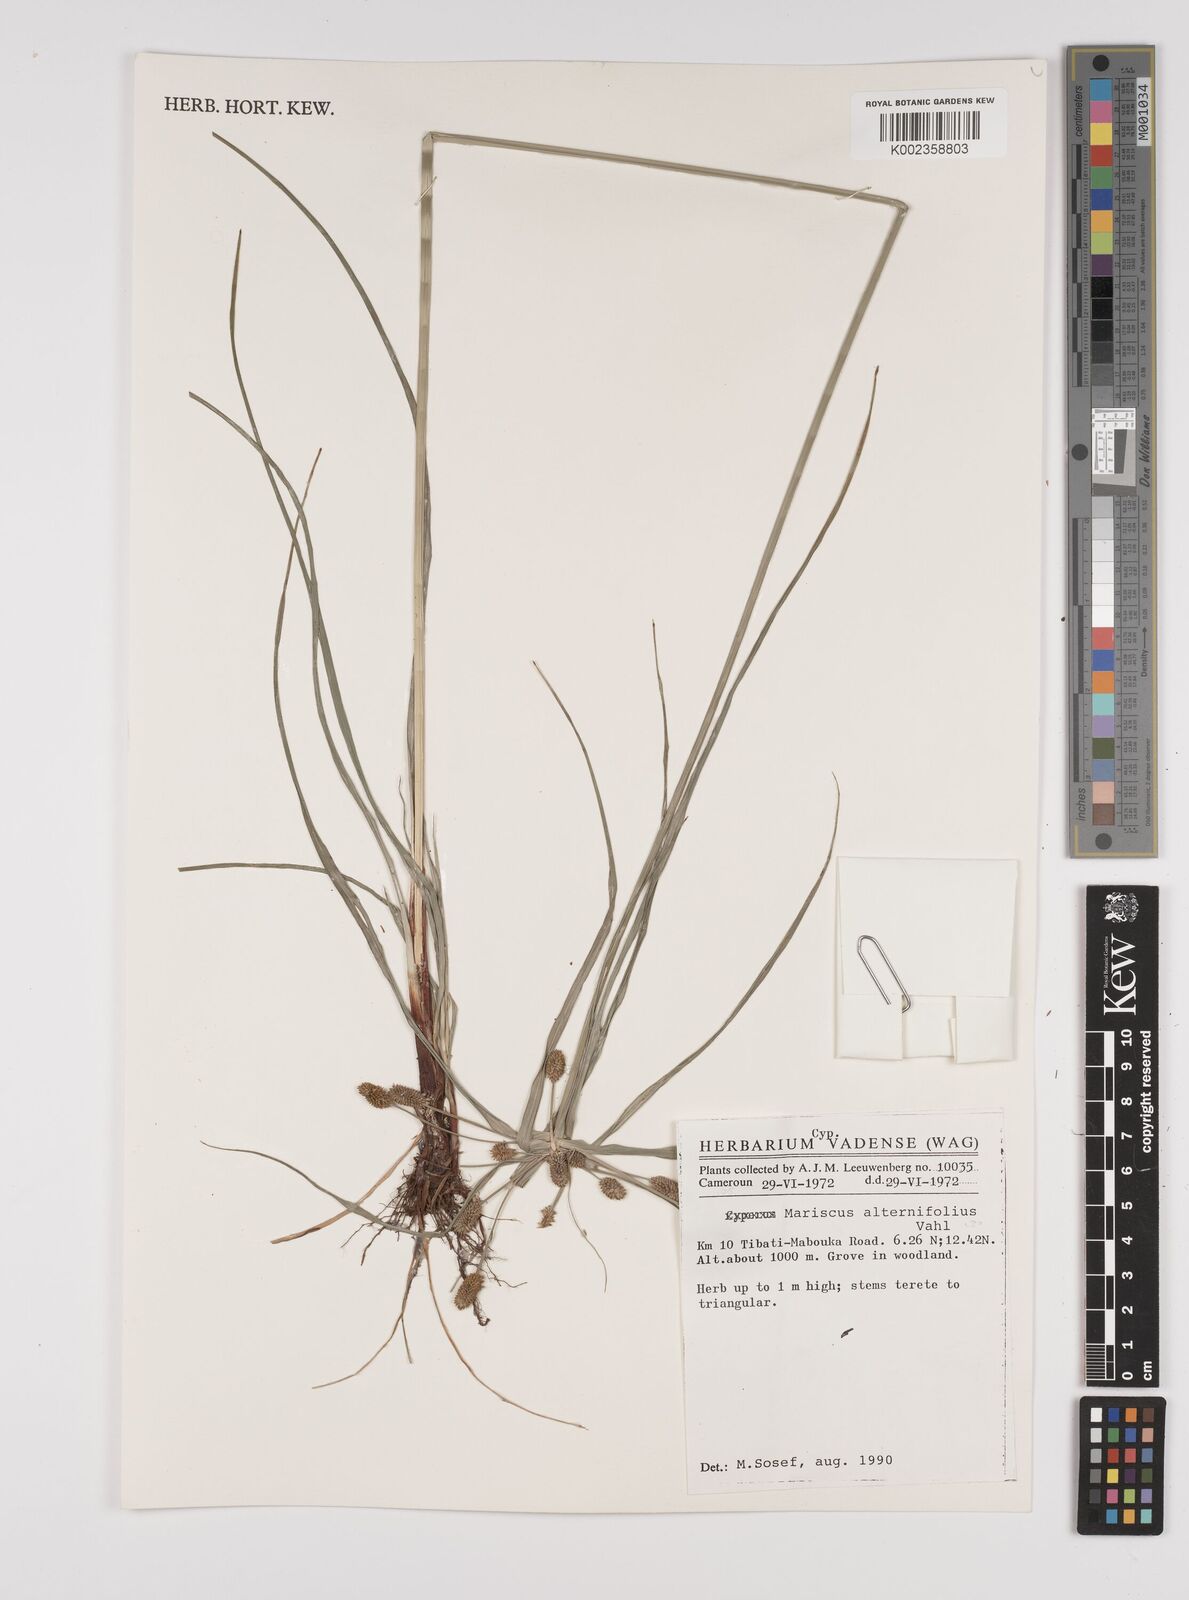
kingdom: Plantae
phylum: Tracheophyta
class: Liliopsida
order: Poales
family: Cyperaceae
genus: Cyperus
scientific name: Cyperus alternifolius
